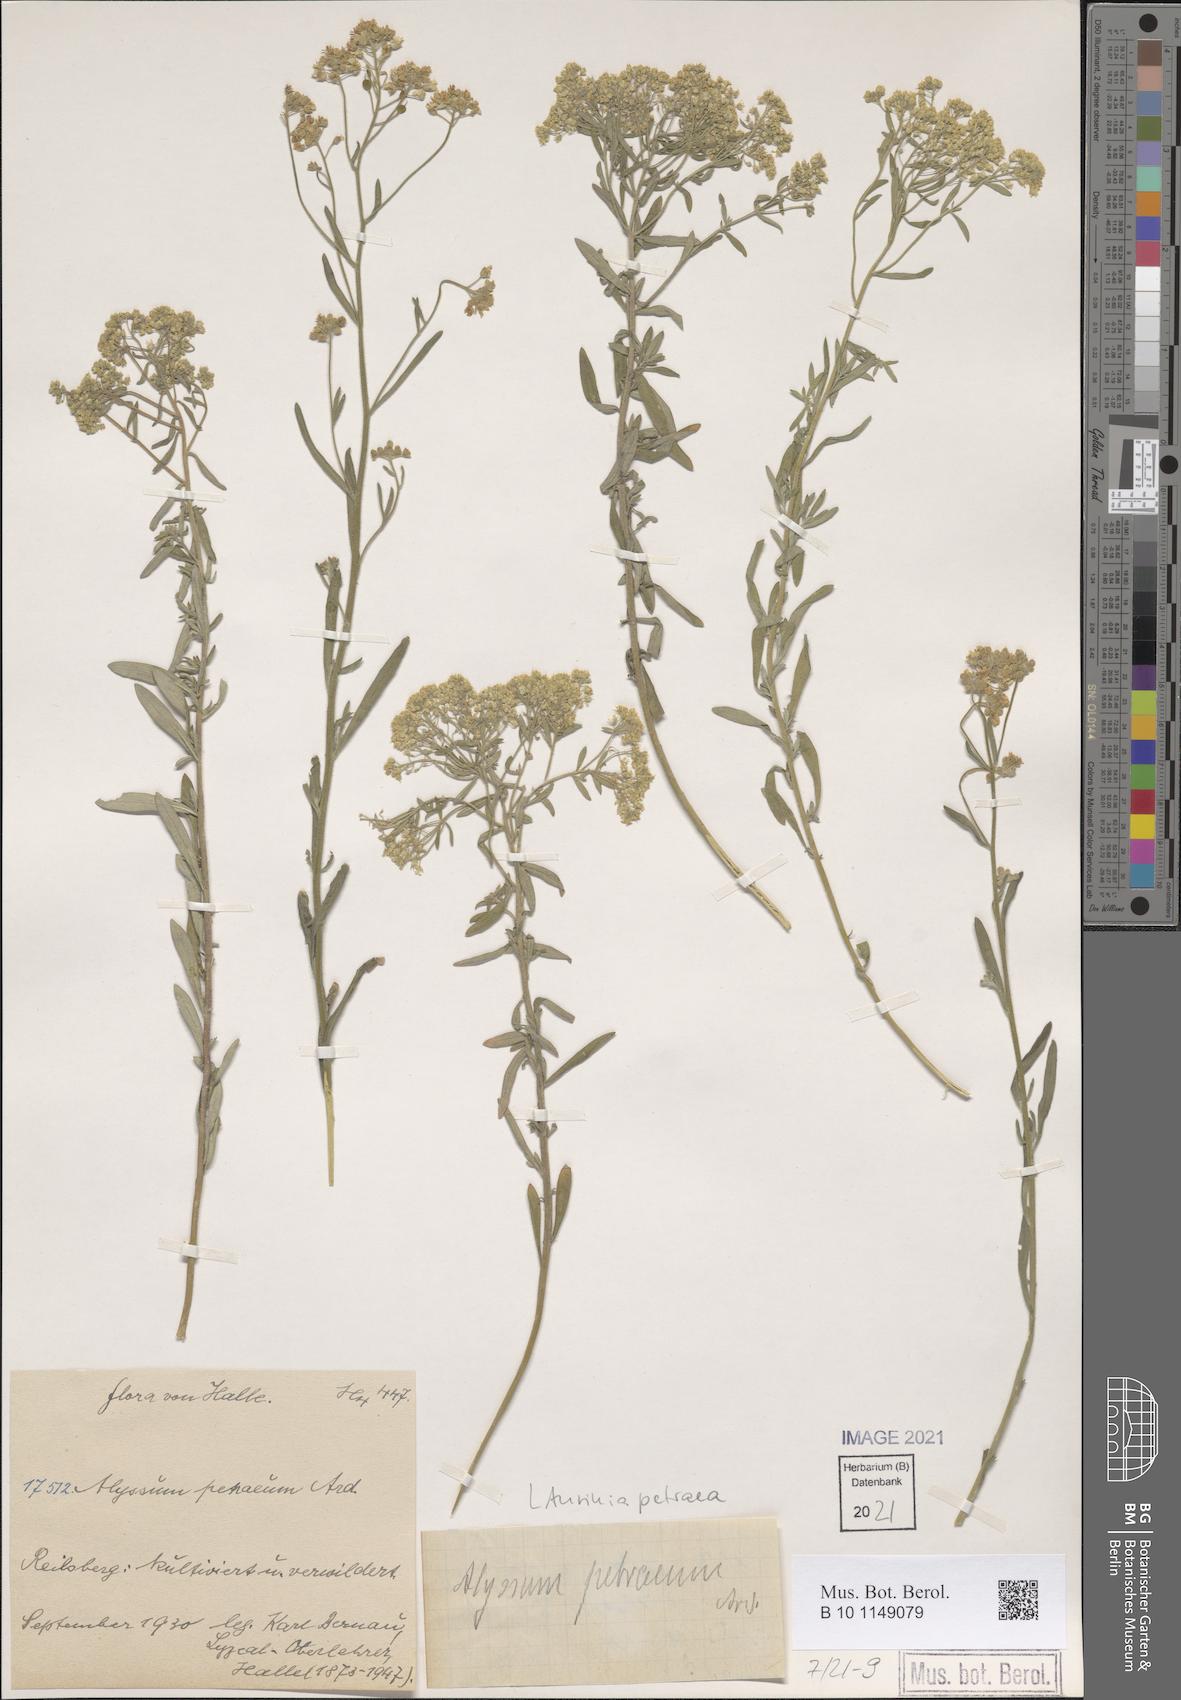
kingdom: Plantae
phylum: Tracheophyta
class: Magnoliopsida
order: Brassicales
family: Brassicaceae
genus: Aurinia
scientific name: Aurinia petraea
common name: Goldentuft
